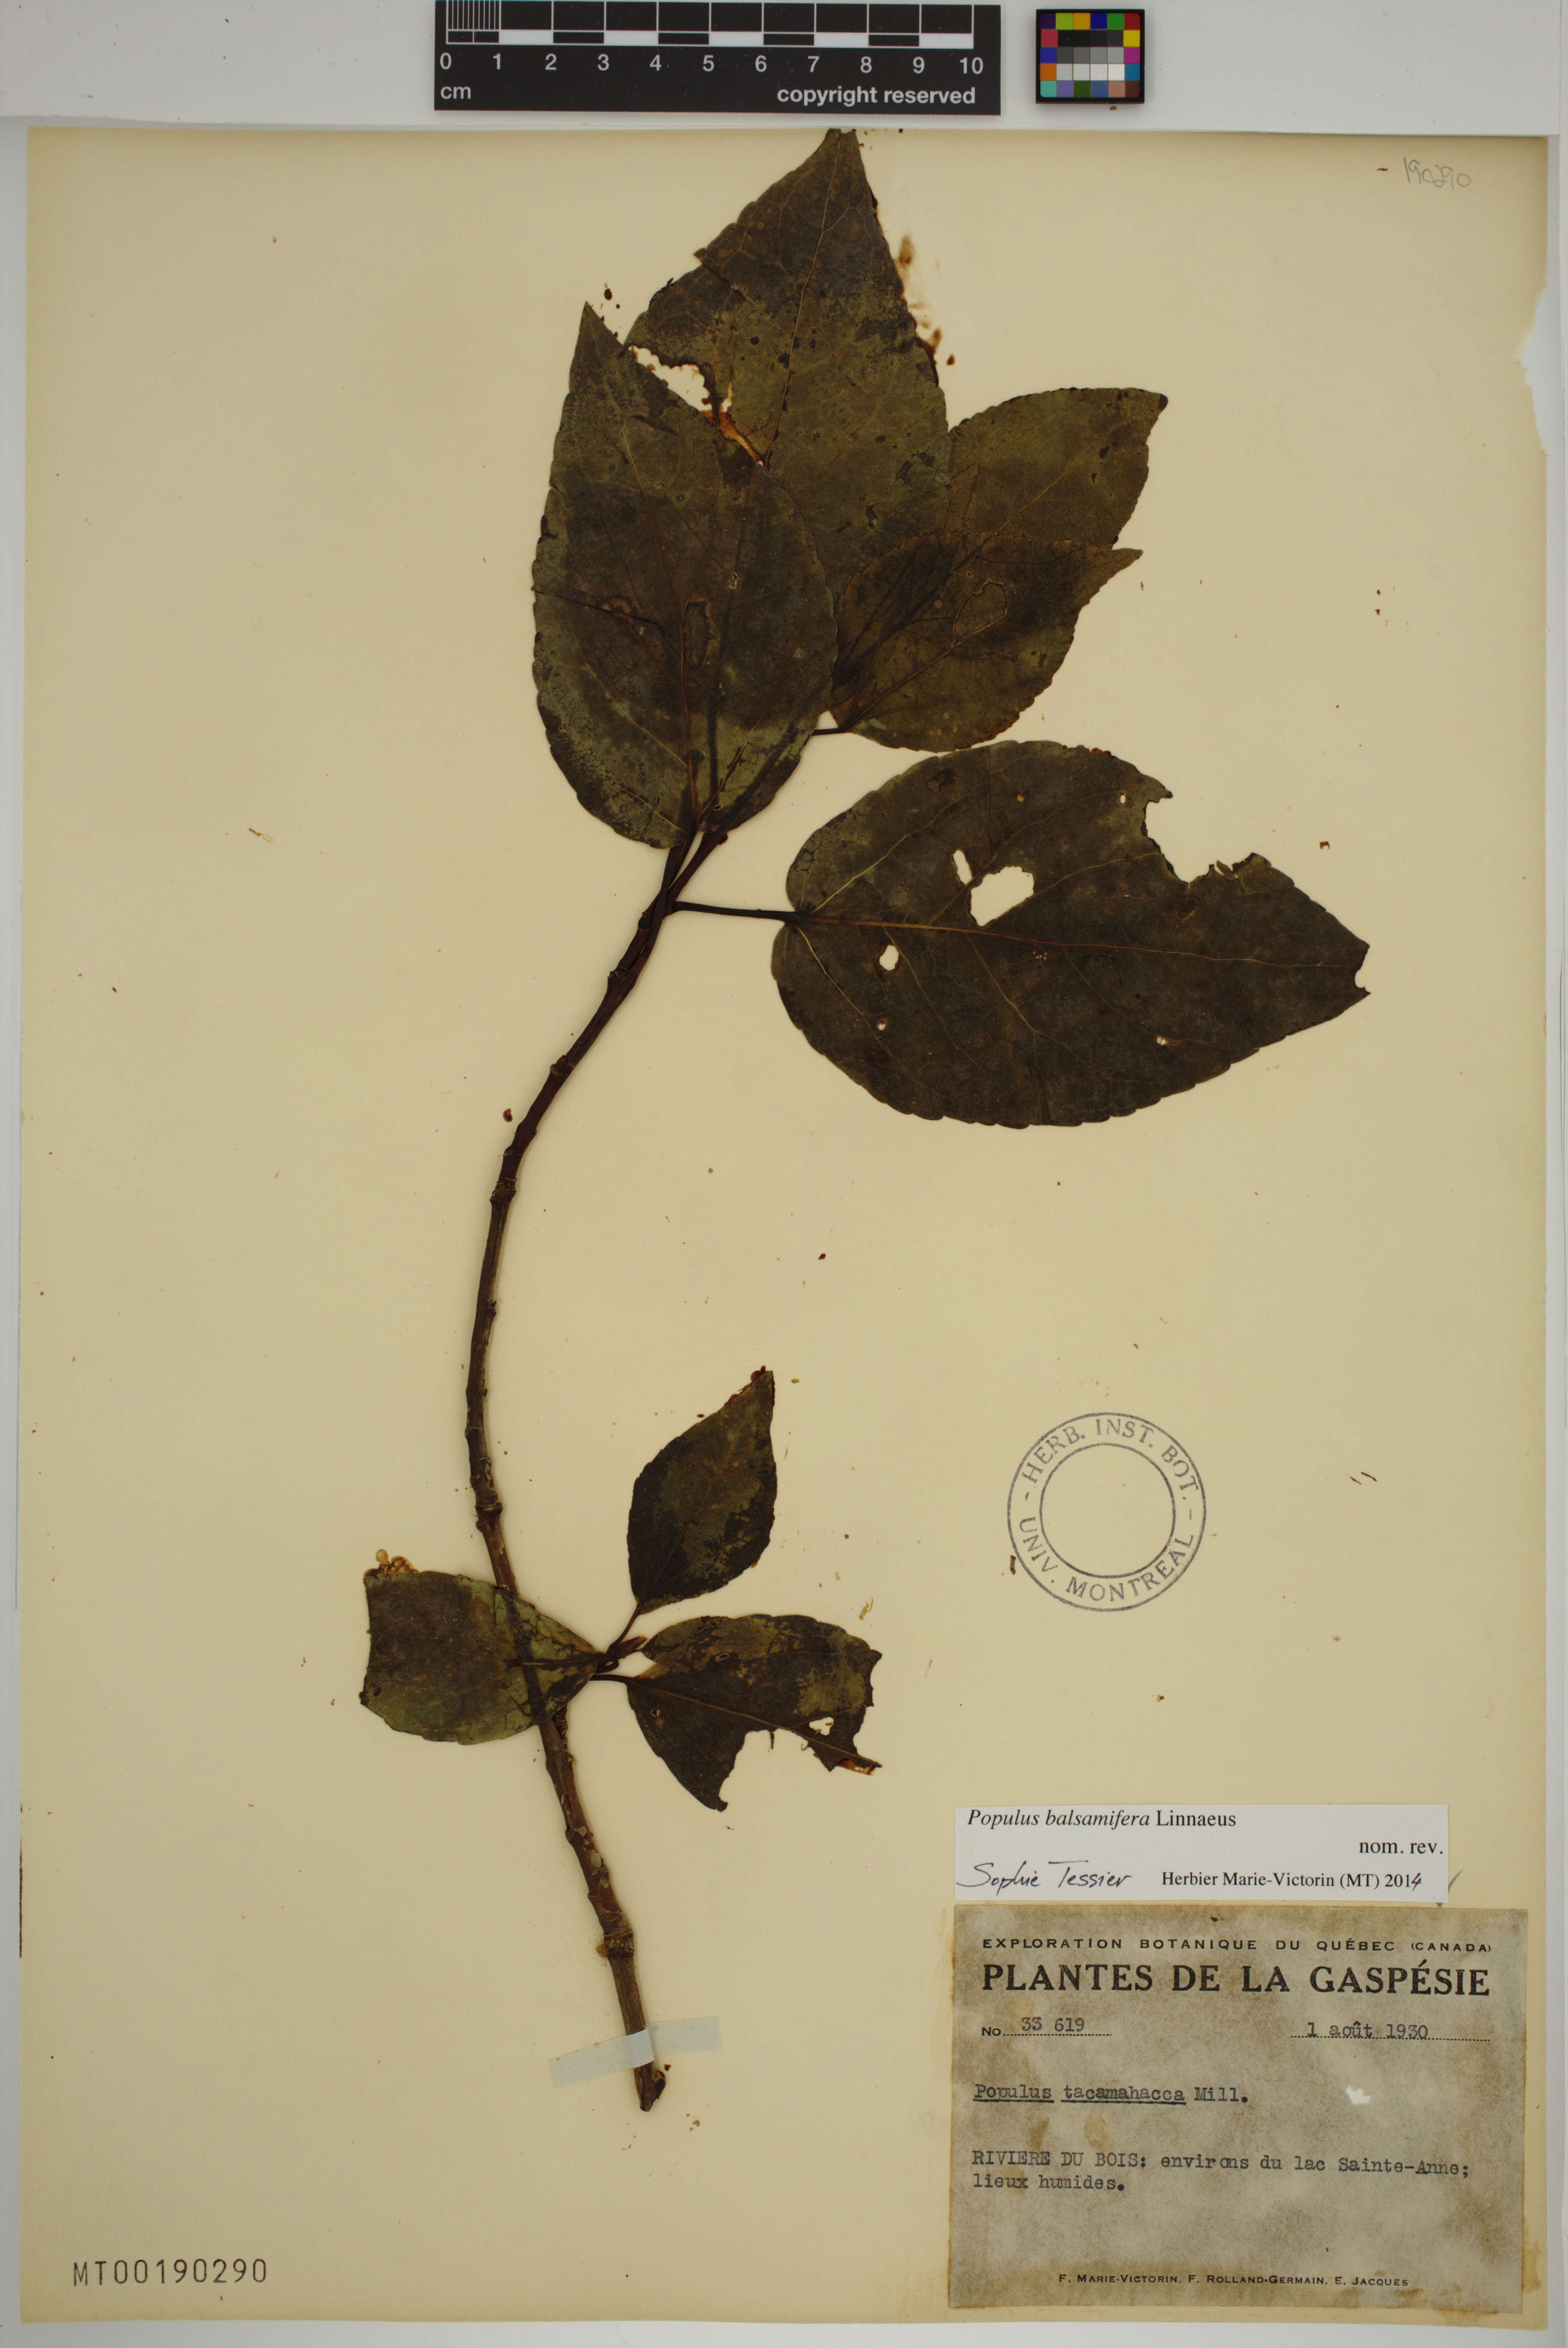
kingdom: Plantae
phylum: Tracheophyta
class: Magnoliopsida
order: Malpighiales
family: Salicaceae
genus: Populus
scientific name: Populus balsamifera
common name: Balsam poplar
